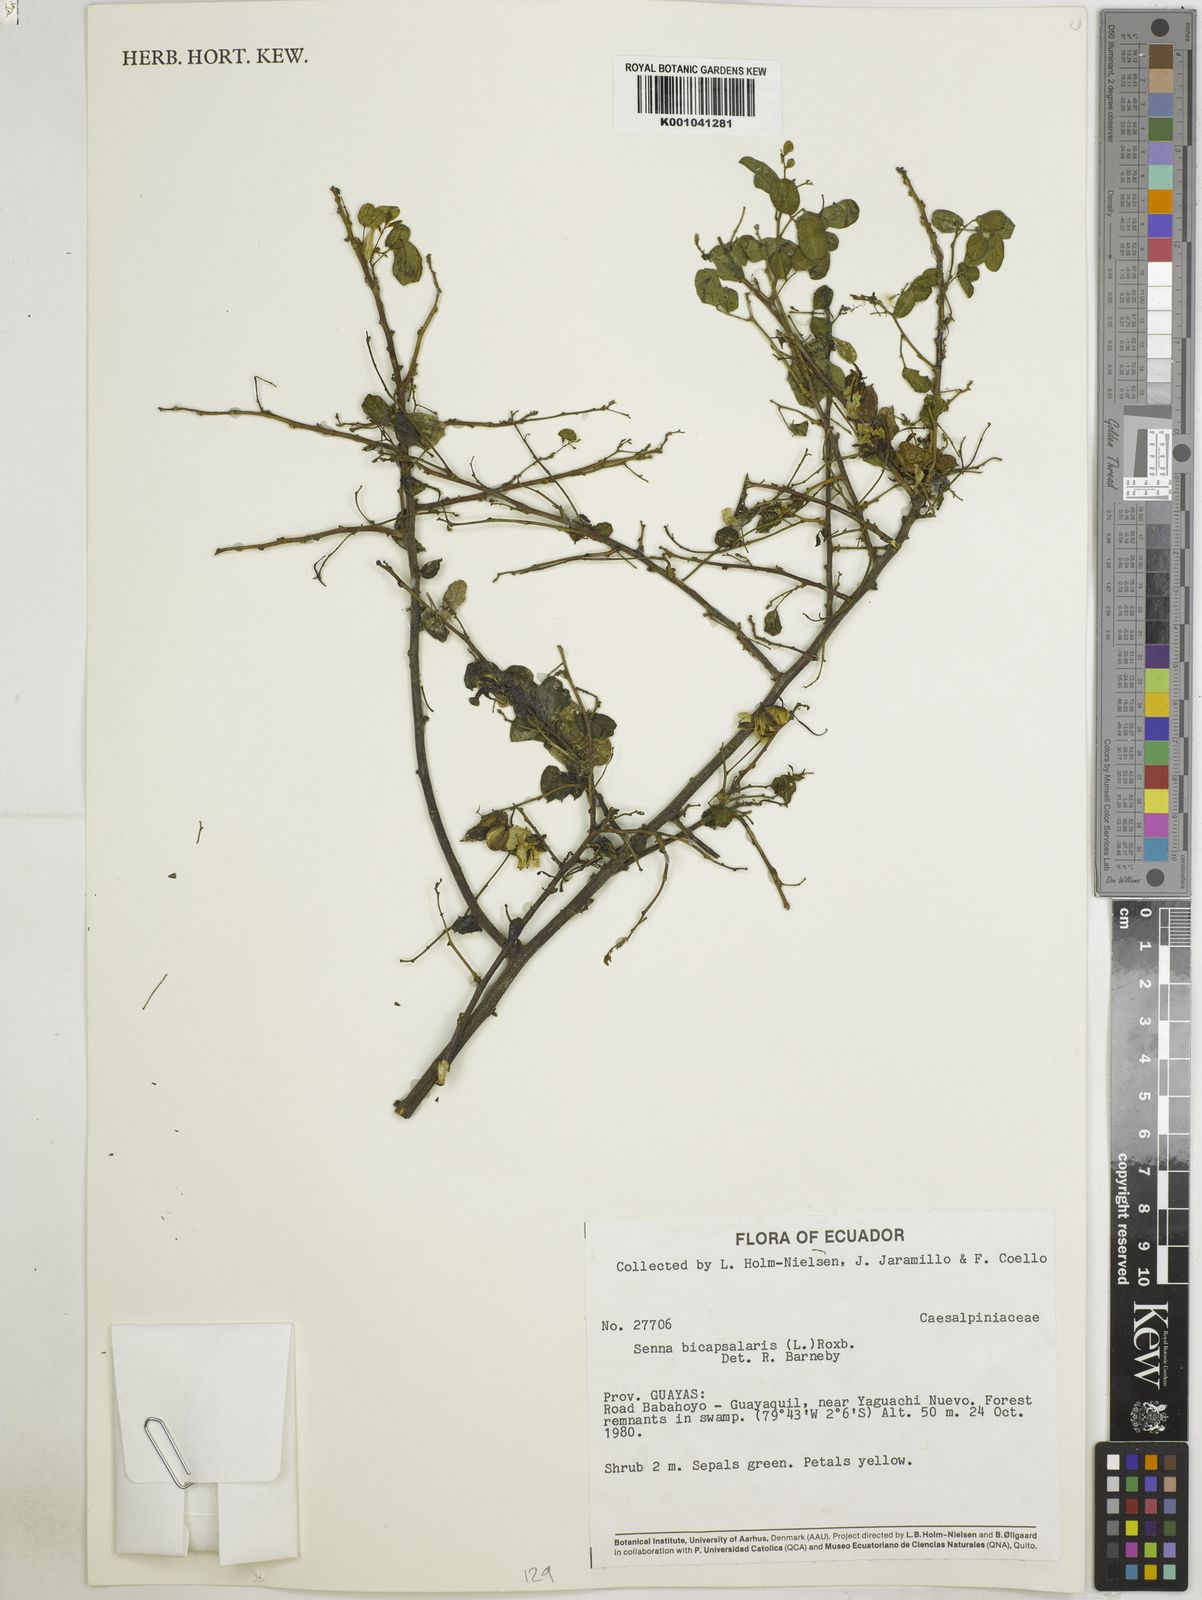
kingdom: Plantae
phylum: Tracheophyta
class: Magnoliopsida
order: Fabales
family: Fabaceae
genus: Senna
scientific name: Senna
